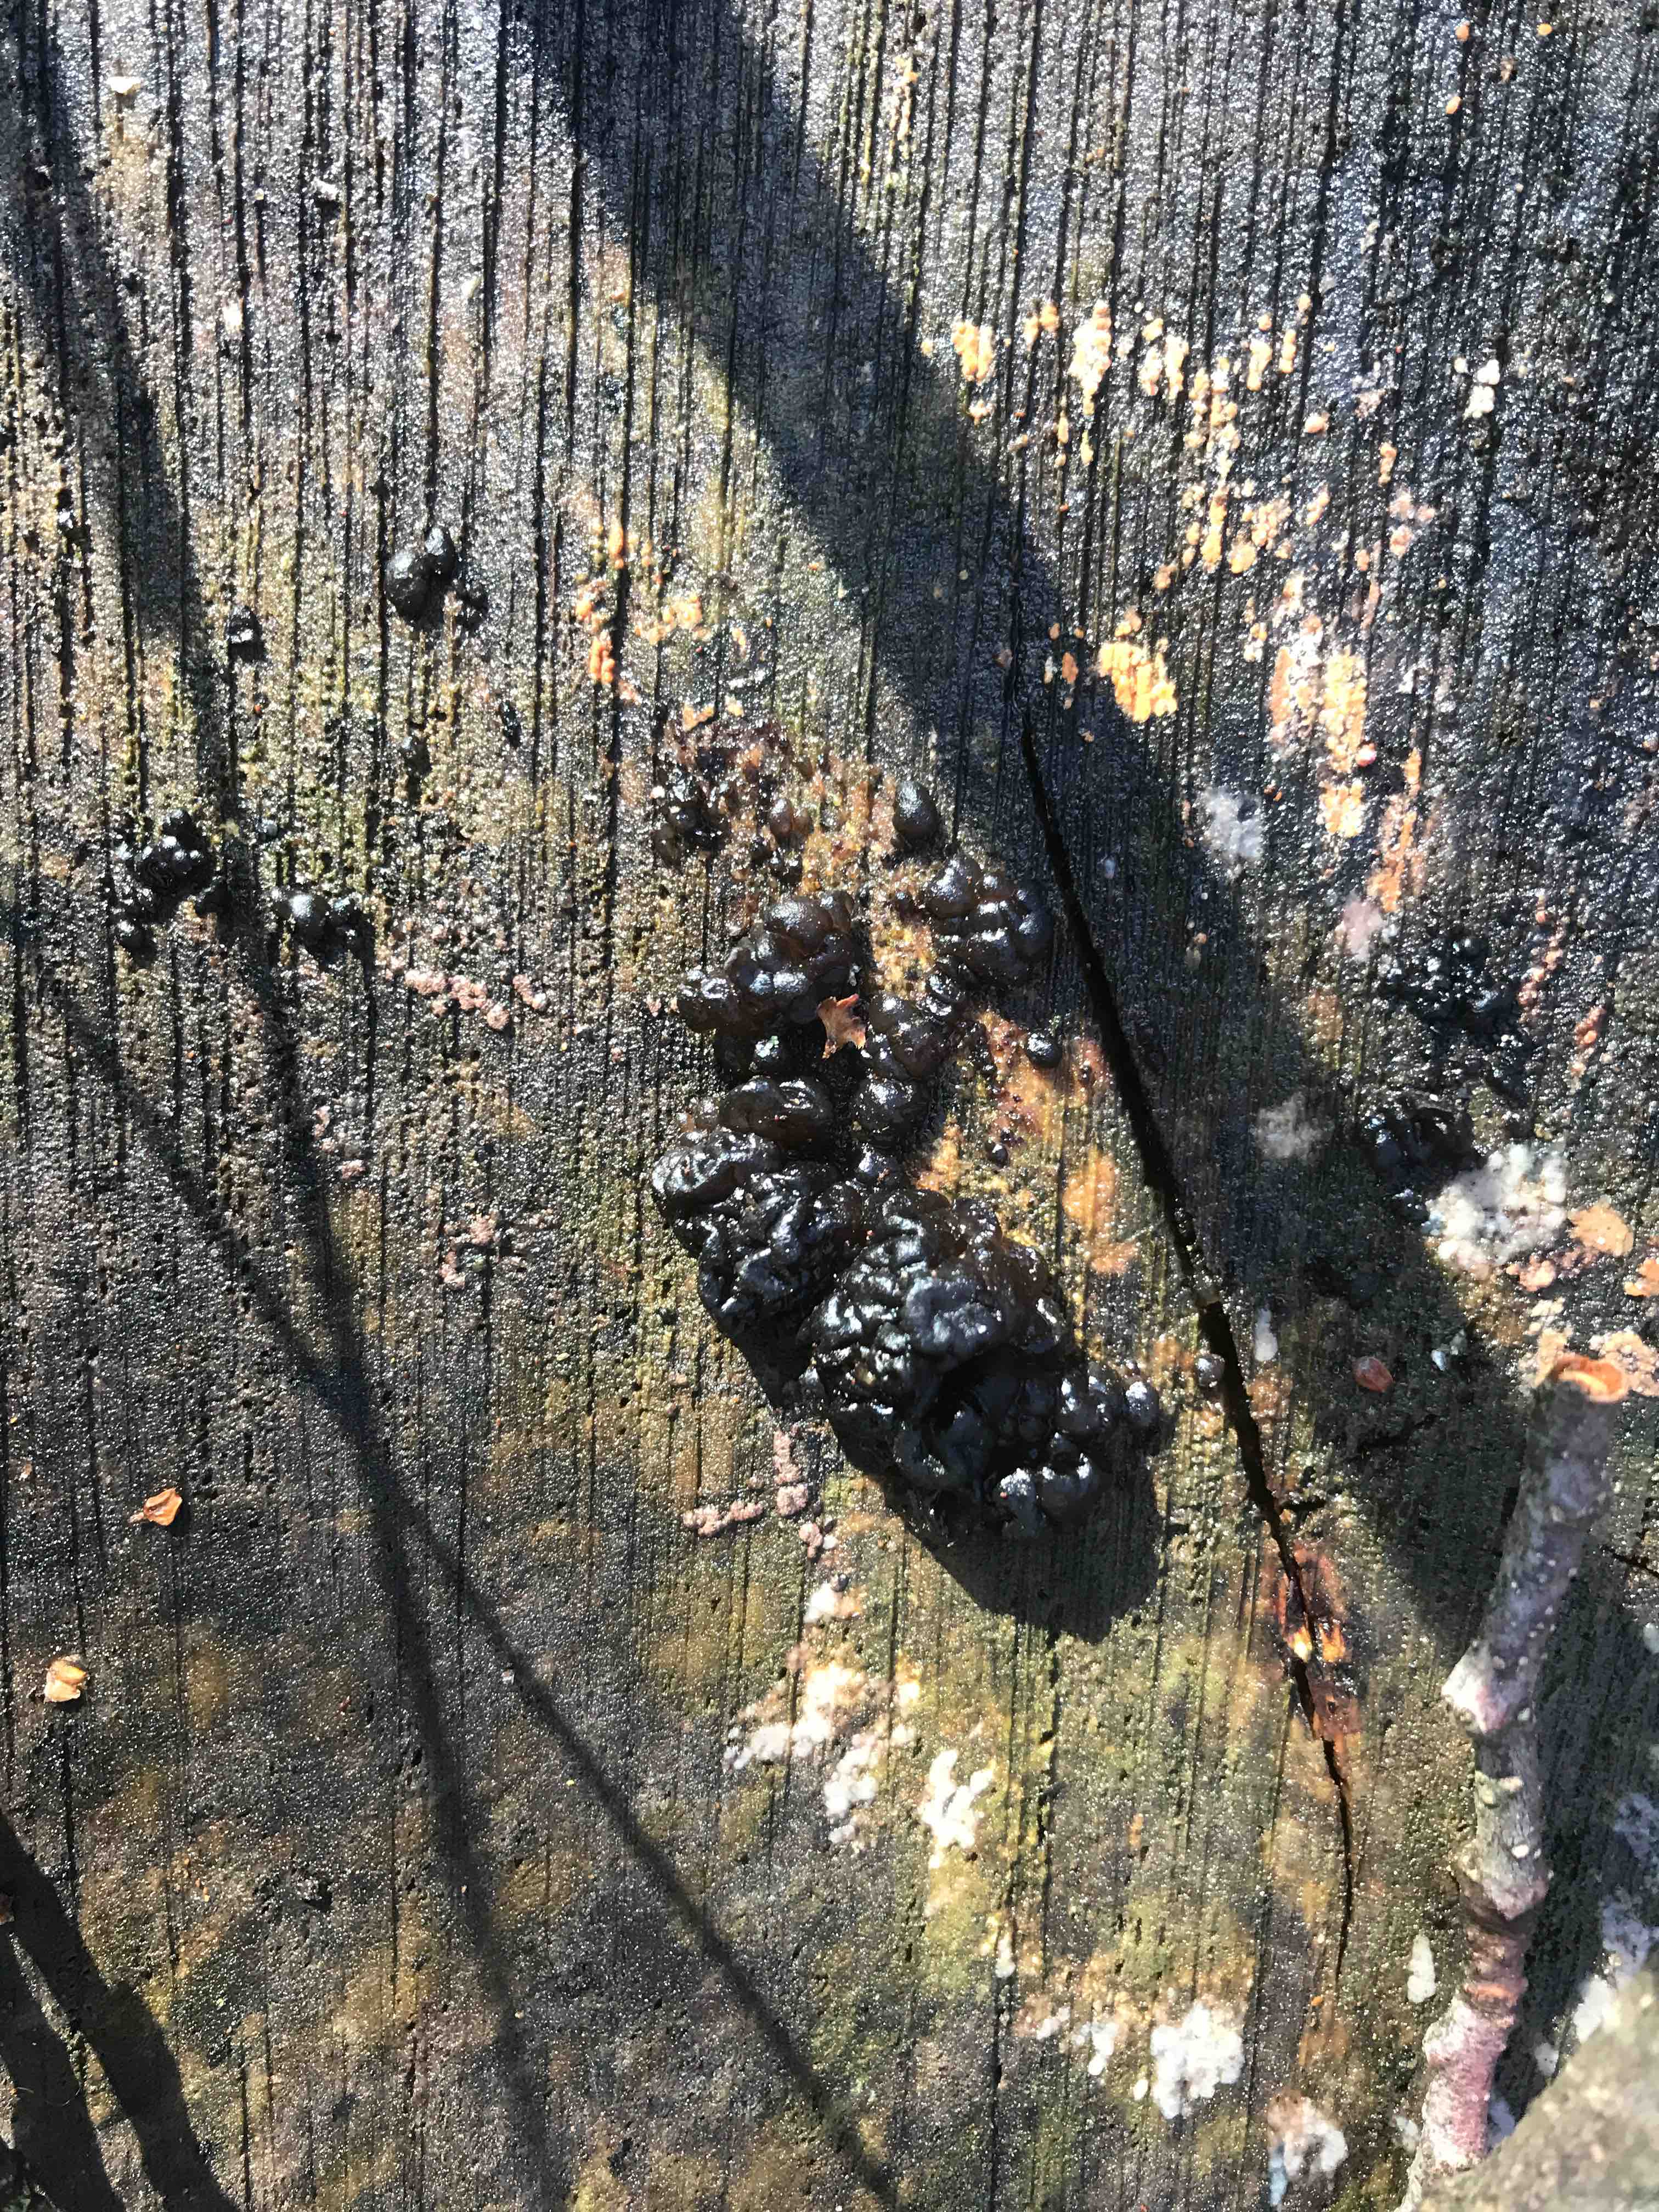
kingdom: Fungi
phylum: Basidiomycota
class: Agaricomycetes
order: Auriculariales
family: Auriculariaceae
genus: Exidia
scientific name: Exidia nigricans
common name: almindelig bævretop
